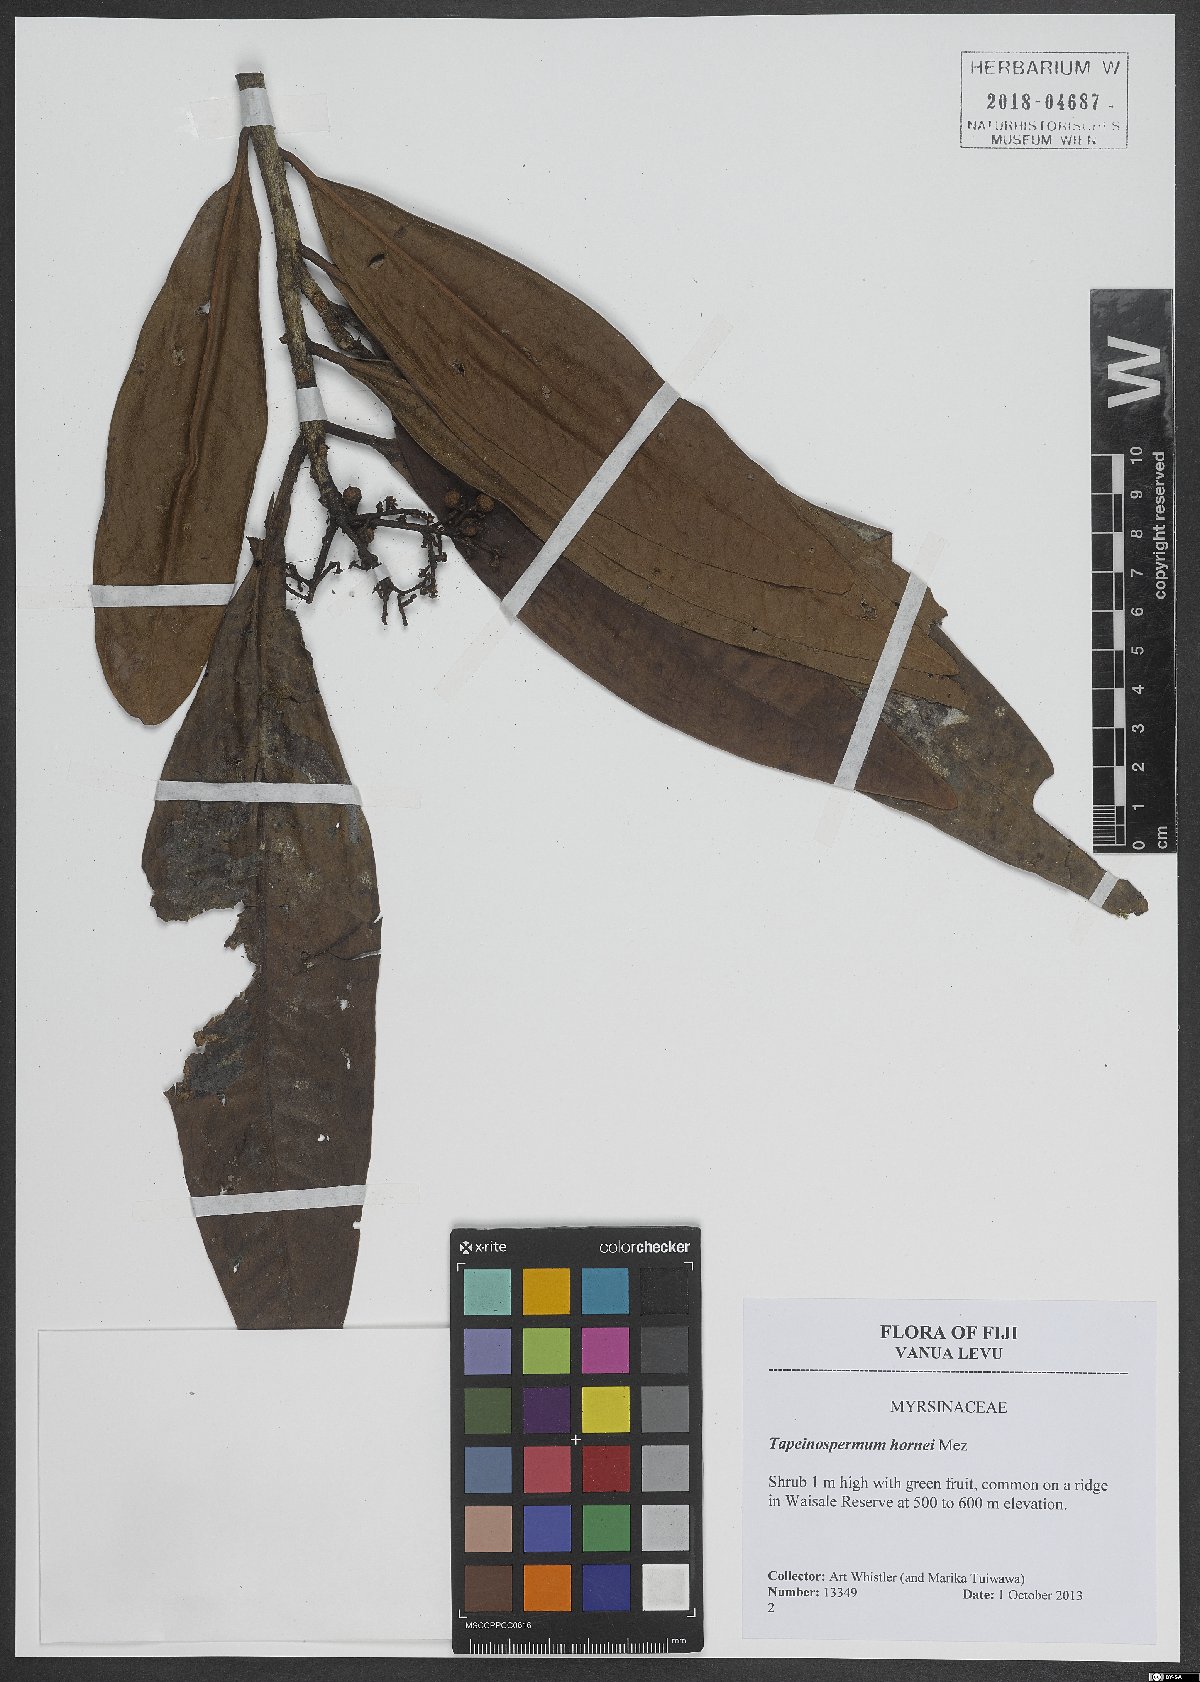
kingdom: Plantae
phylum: Tracheophyta
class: Magnoliopsida
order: Ericales
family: Primulaceae
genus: Tapeinosperma
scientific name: Tapeinosperma hornei
